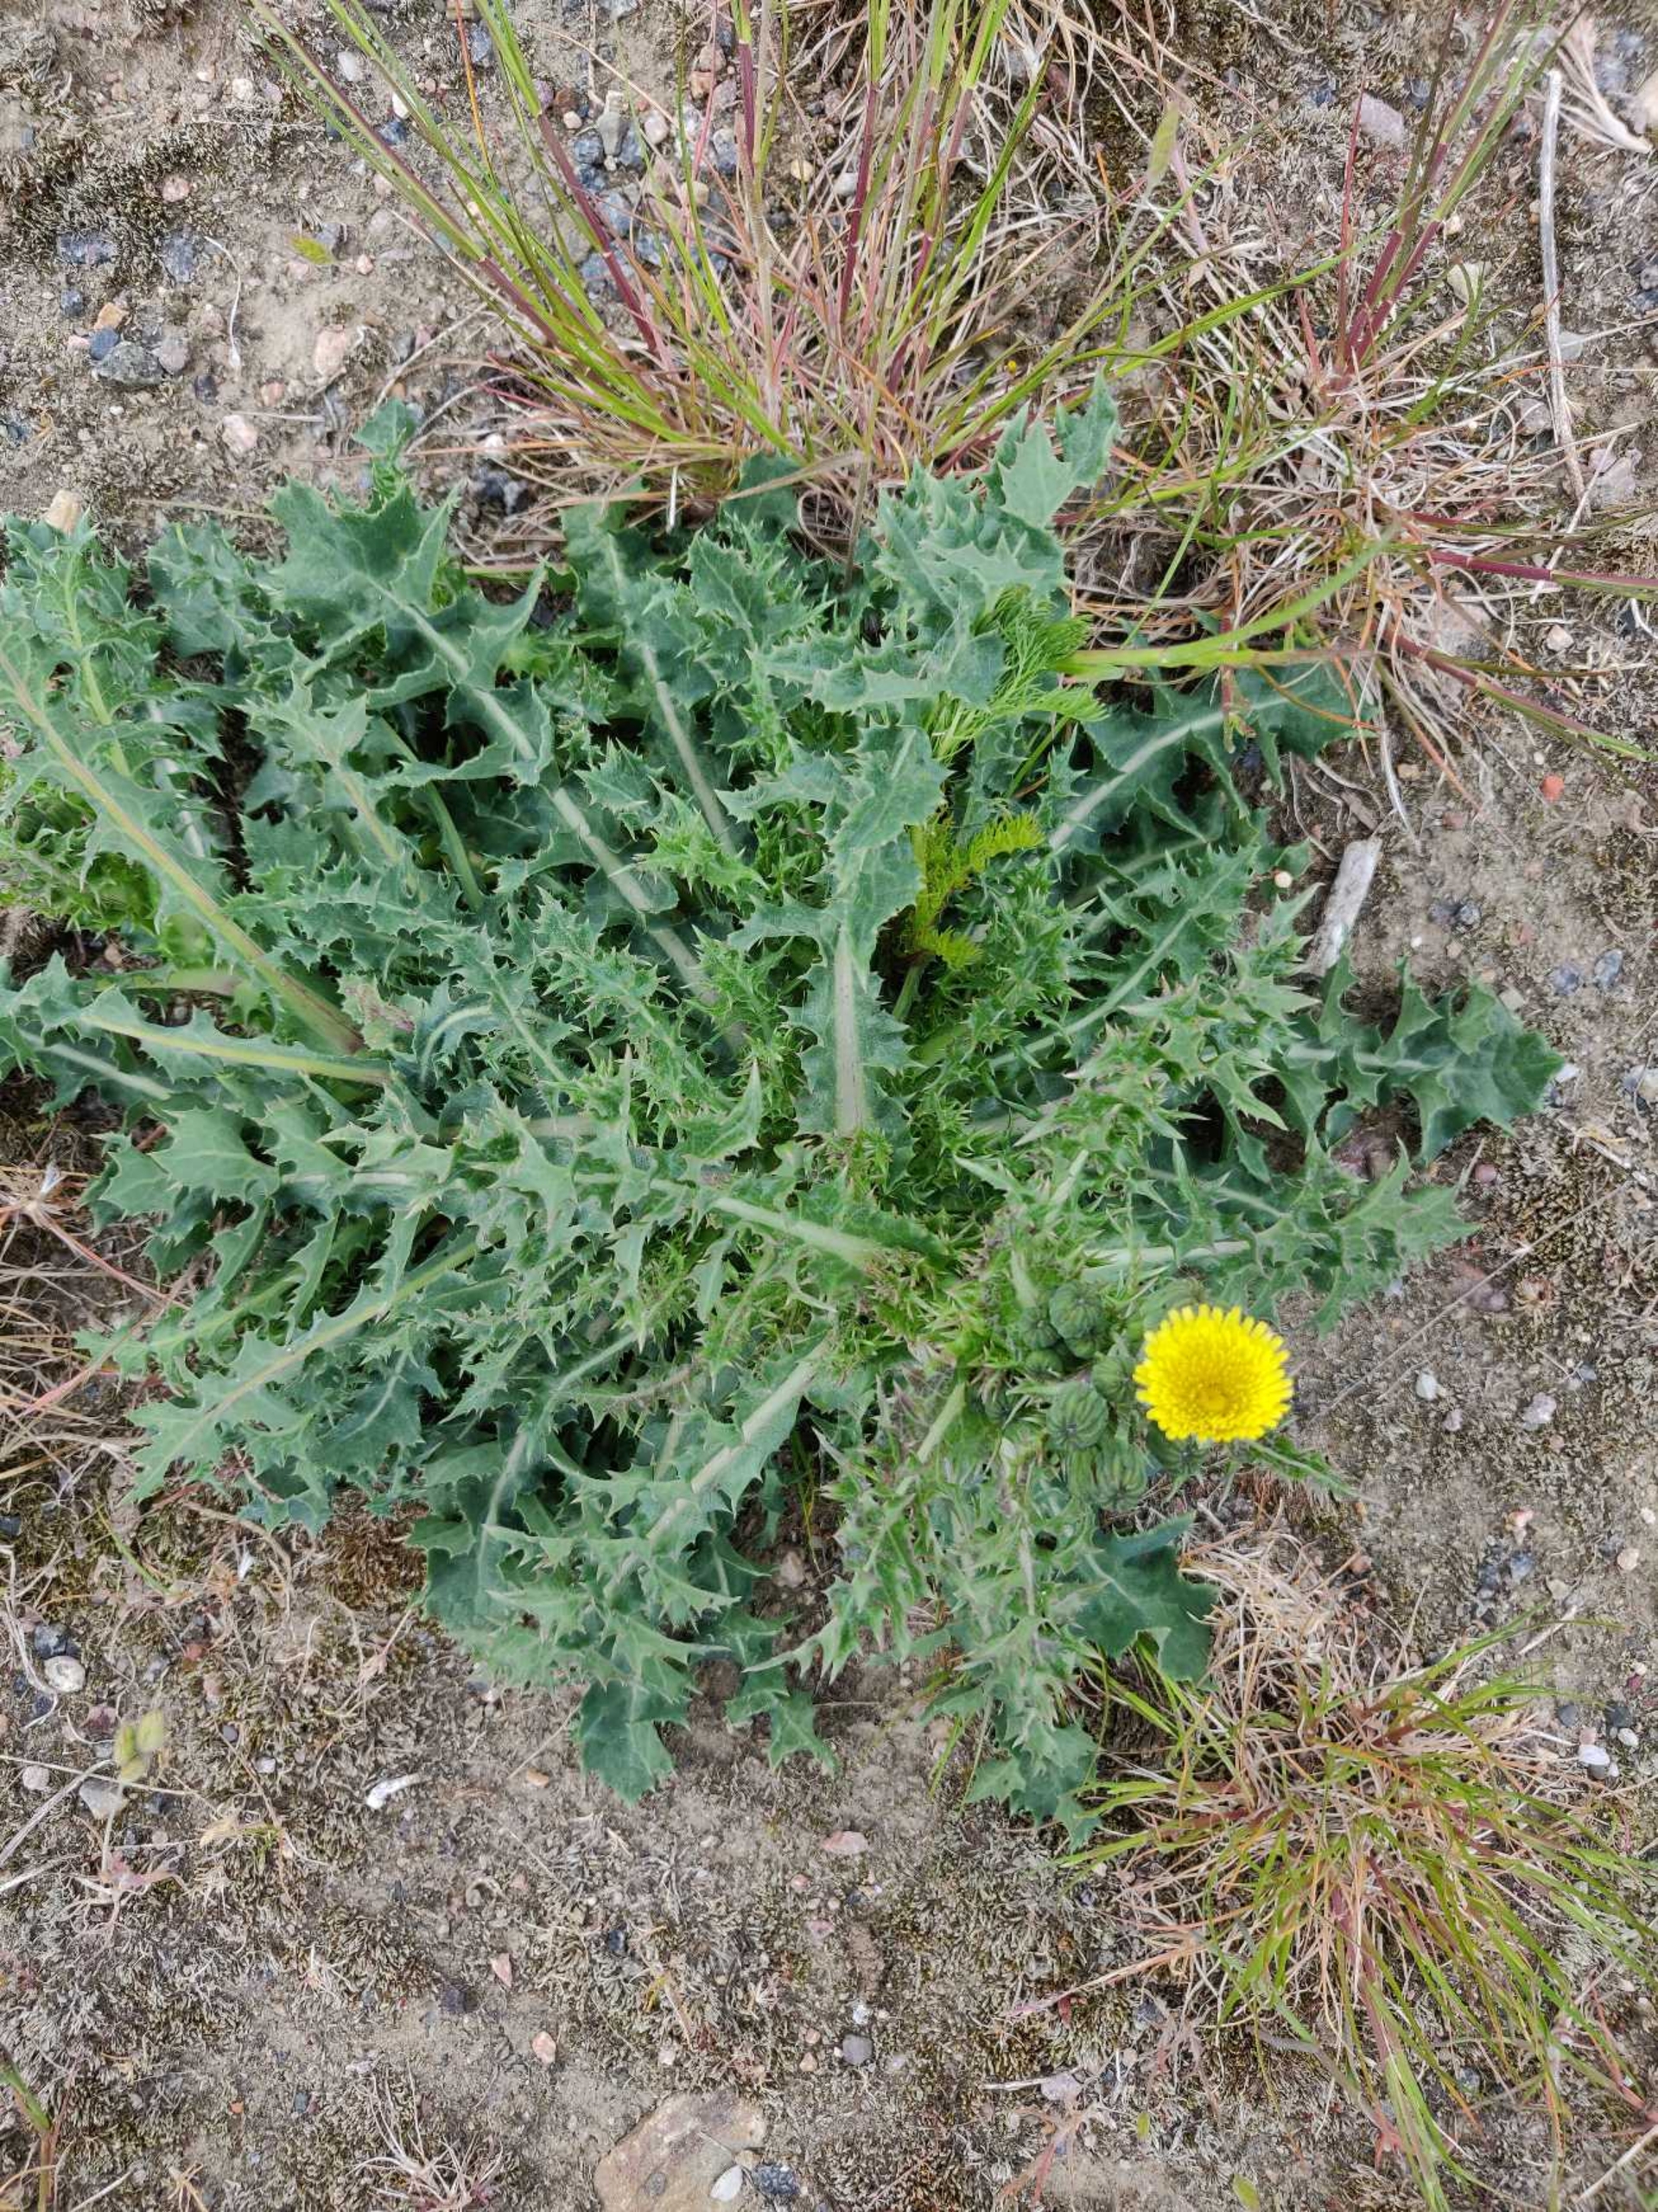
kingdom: Plantae
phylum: Tracheophyta
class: Magnoliopsida
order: Asterales
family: Asteraceae
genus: Sonchus
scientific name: Sonchus asper
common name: Ru svinemælk
